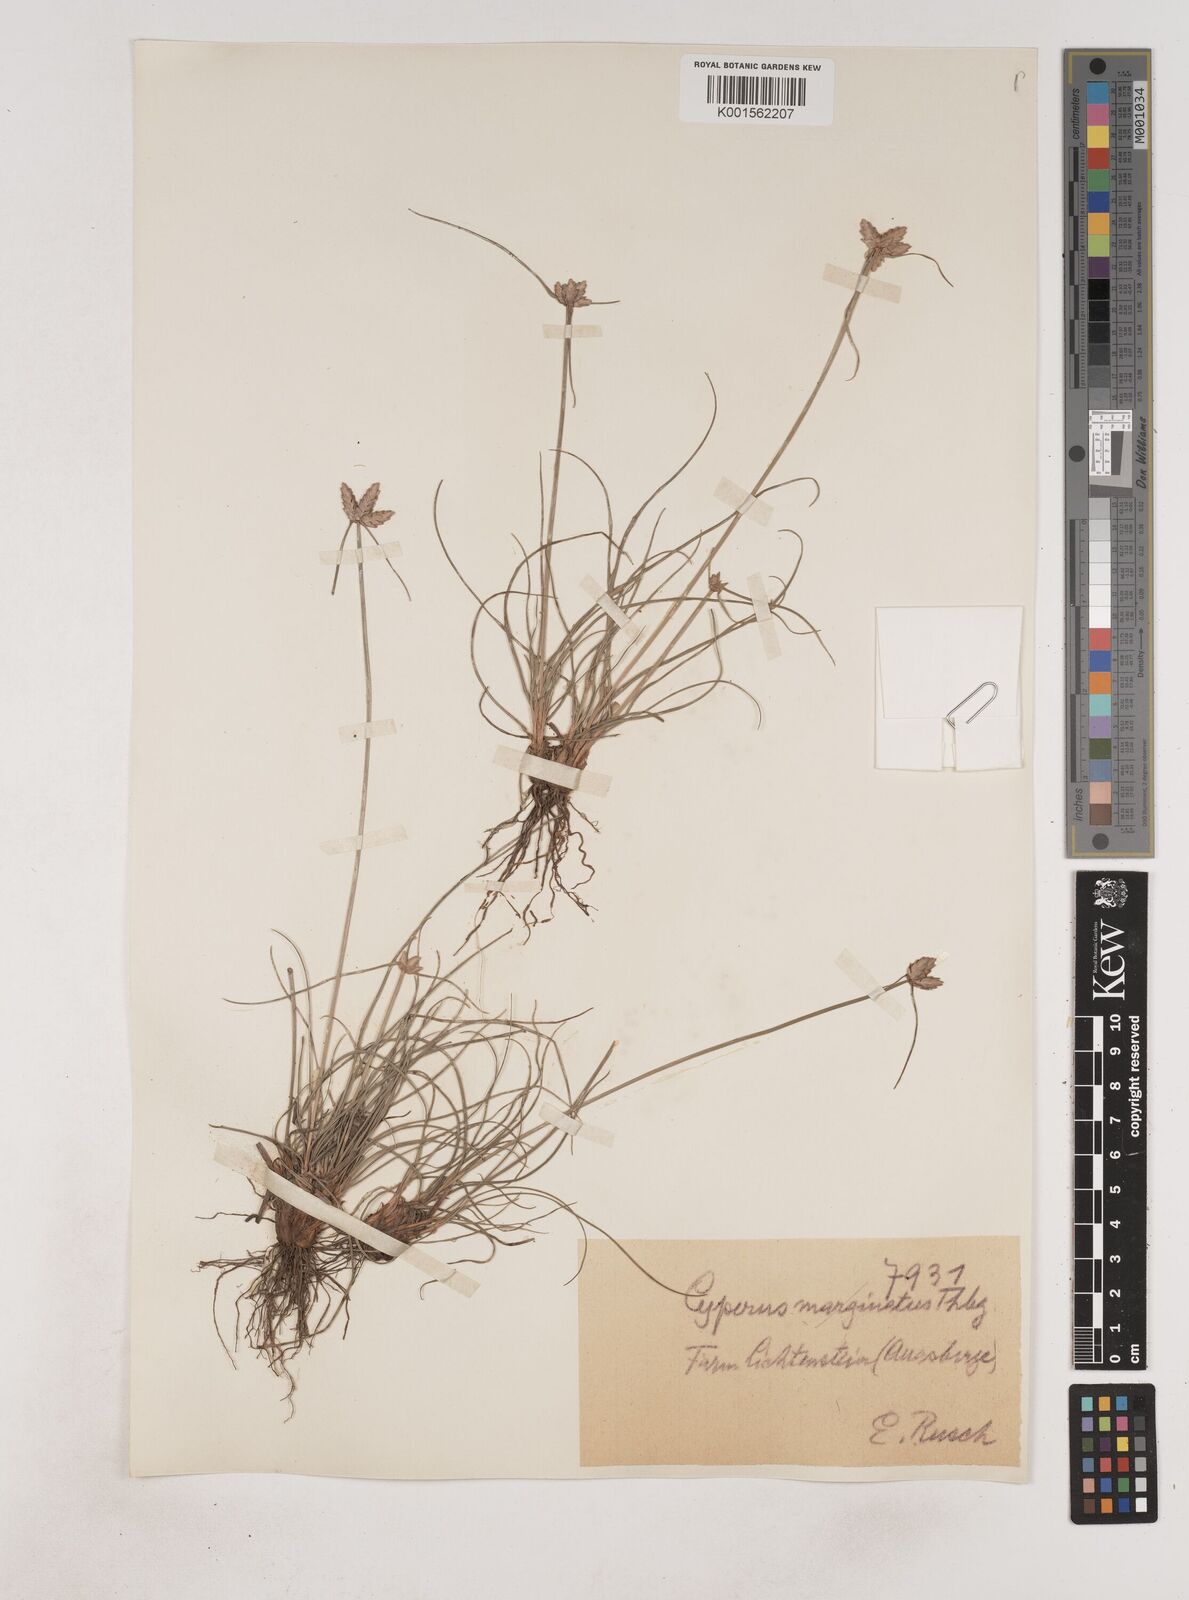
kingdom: Plantae
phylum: Tracheophyta
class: Liliopsida
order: Poales
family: Cyperaceae
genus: Cyperus
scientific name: Cyperus margaritaceus
